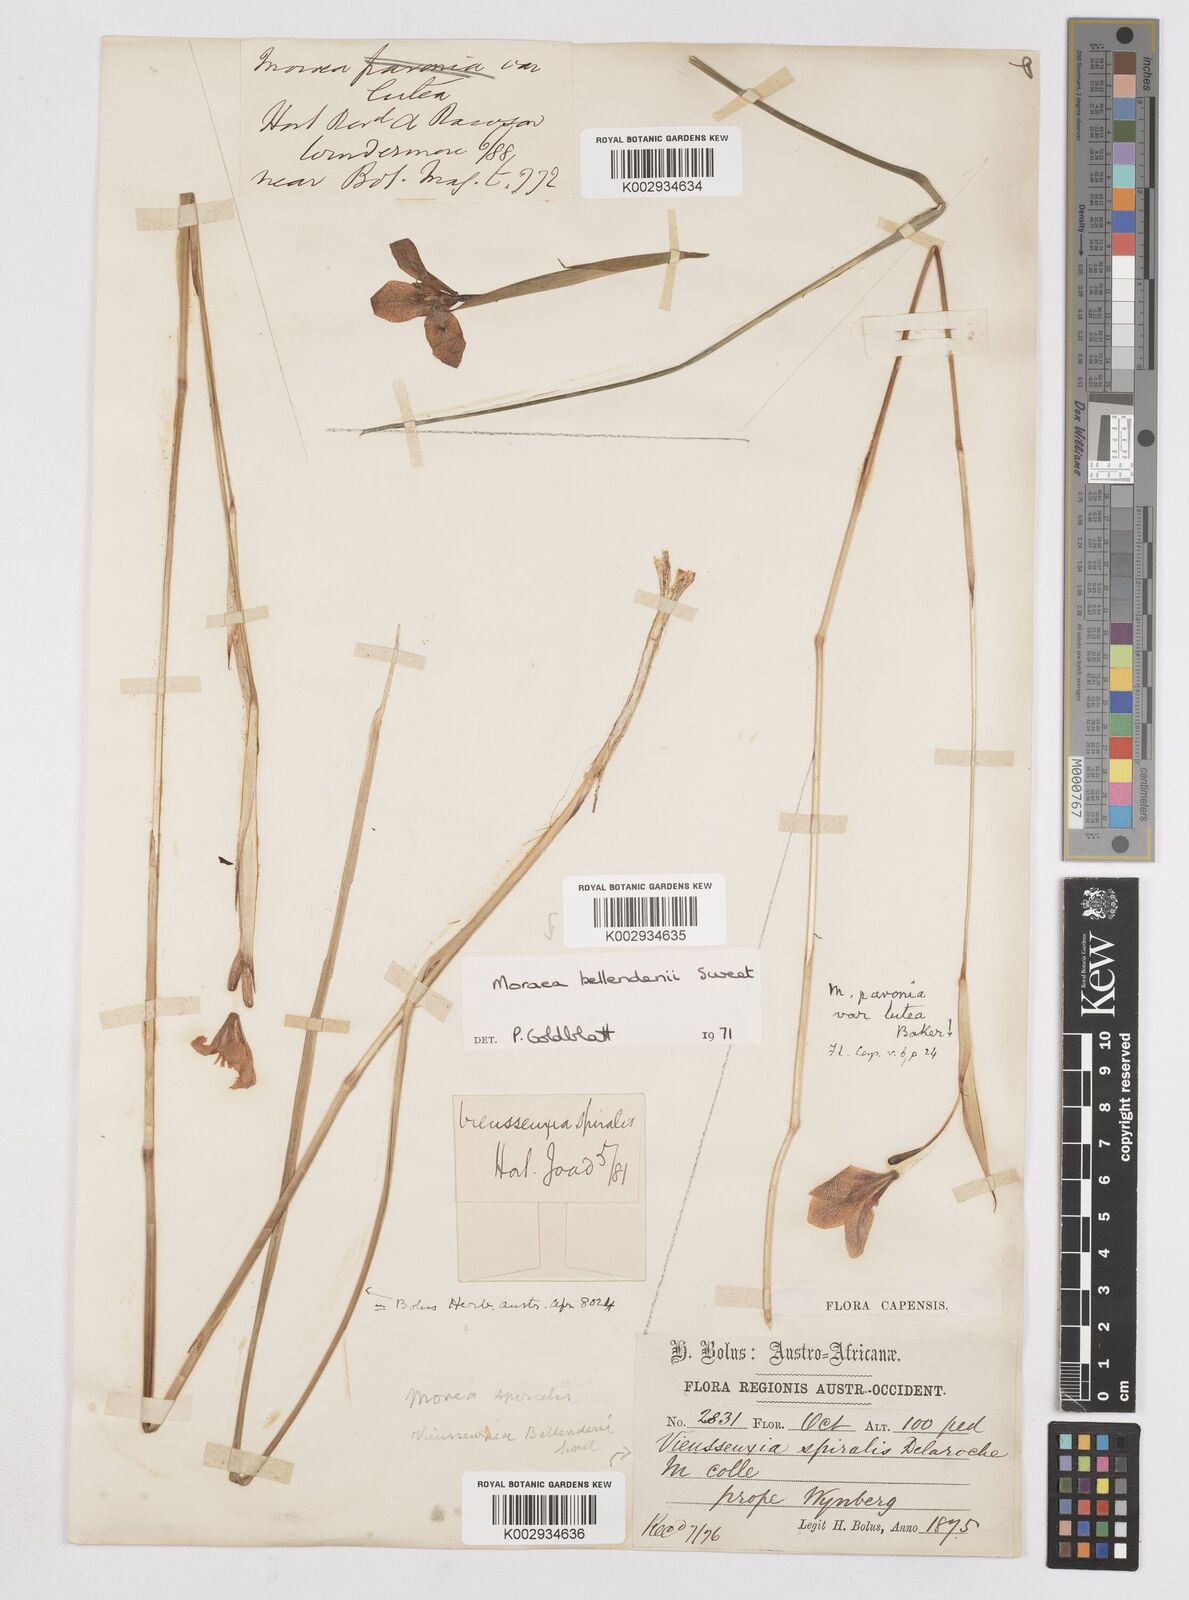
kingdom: Plantae
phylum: Tracheophyta
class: Liliopsida
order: Asparagales
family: Iridaceae
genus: Moraea
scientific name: Moraea bellendenii
